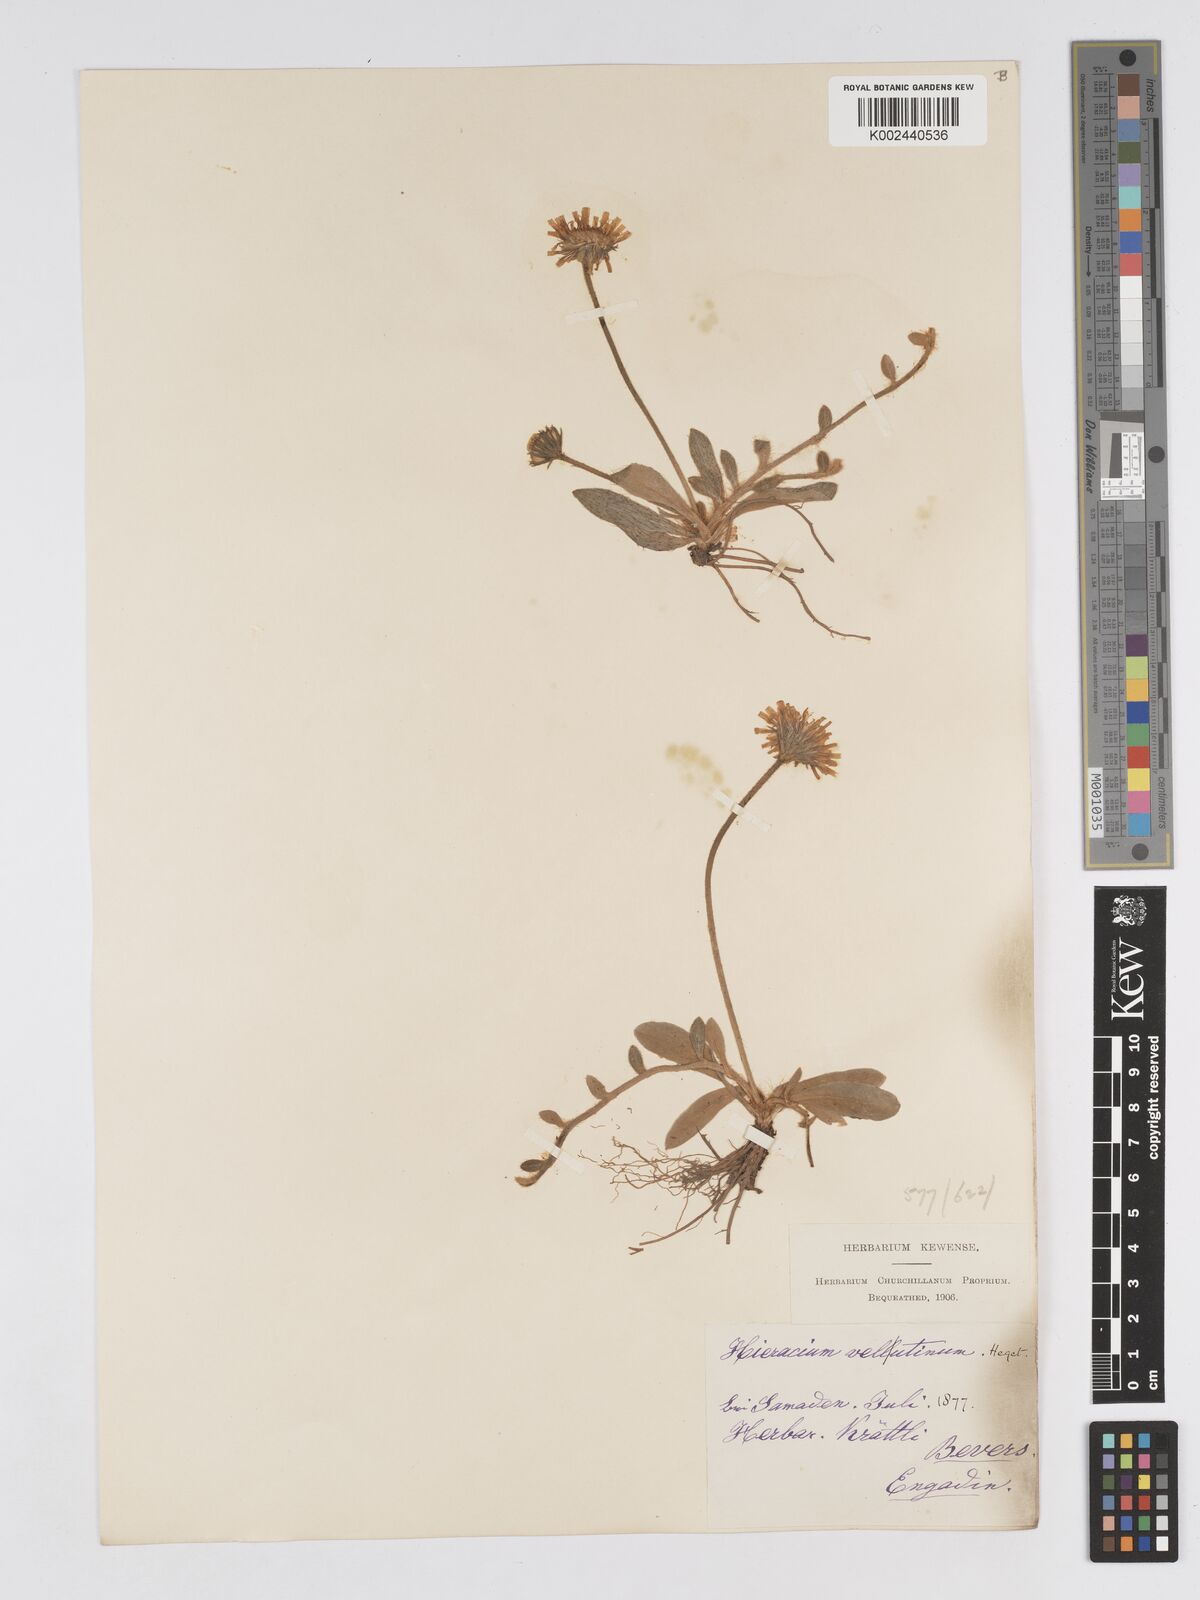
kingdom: Plantae
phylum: Tracheophyta
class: Magnoliopsida
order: Asterales
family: Asteraceae
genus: Pilosella
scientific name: Pilosella velutina
